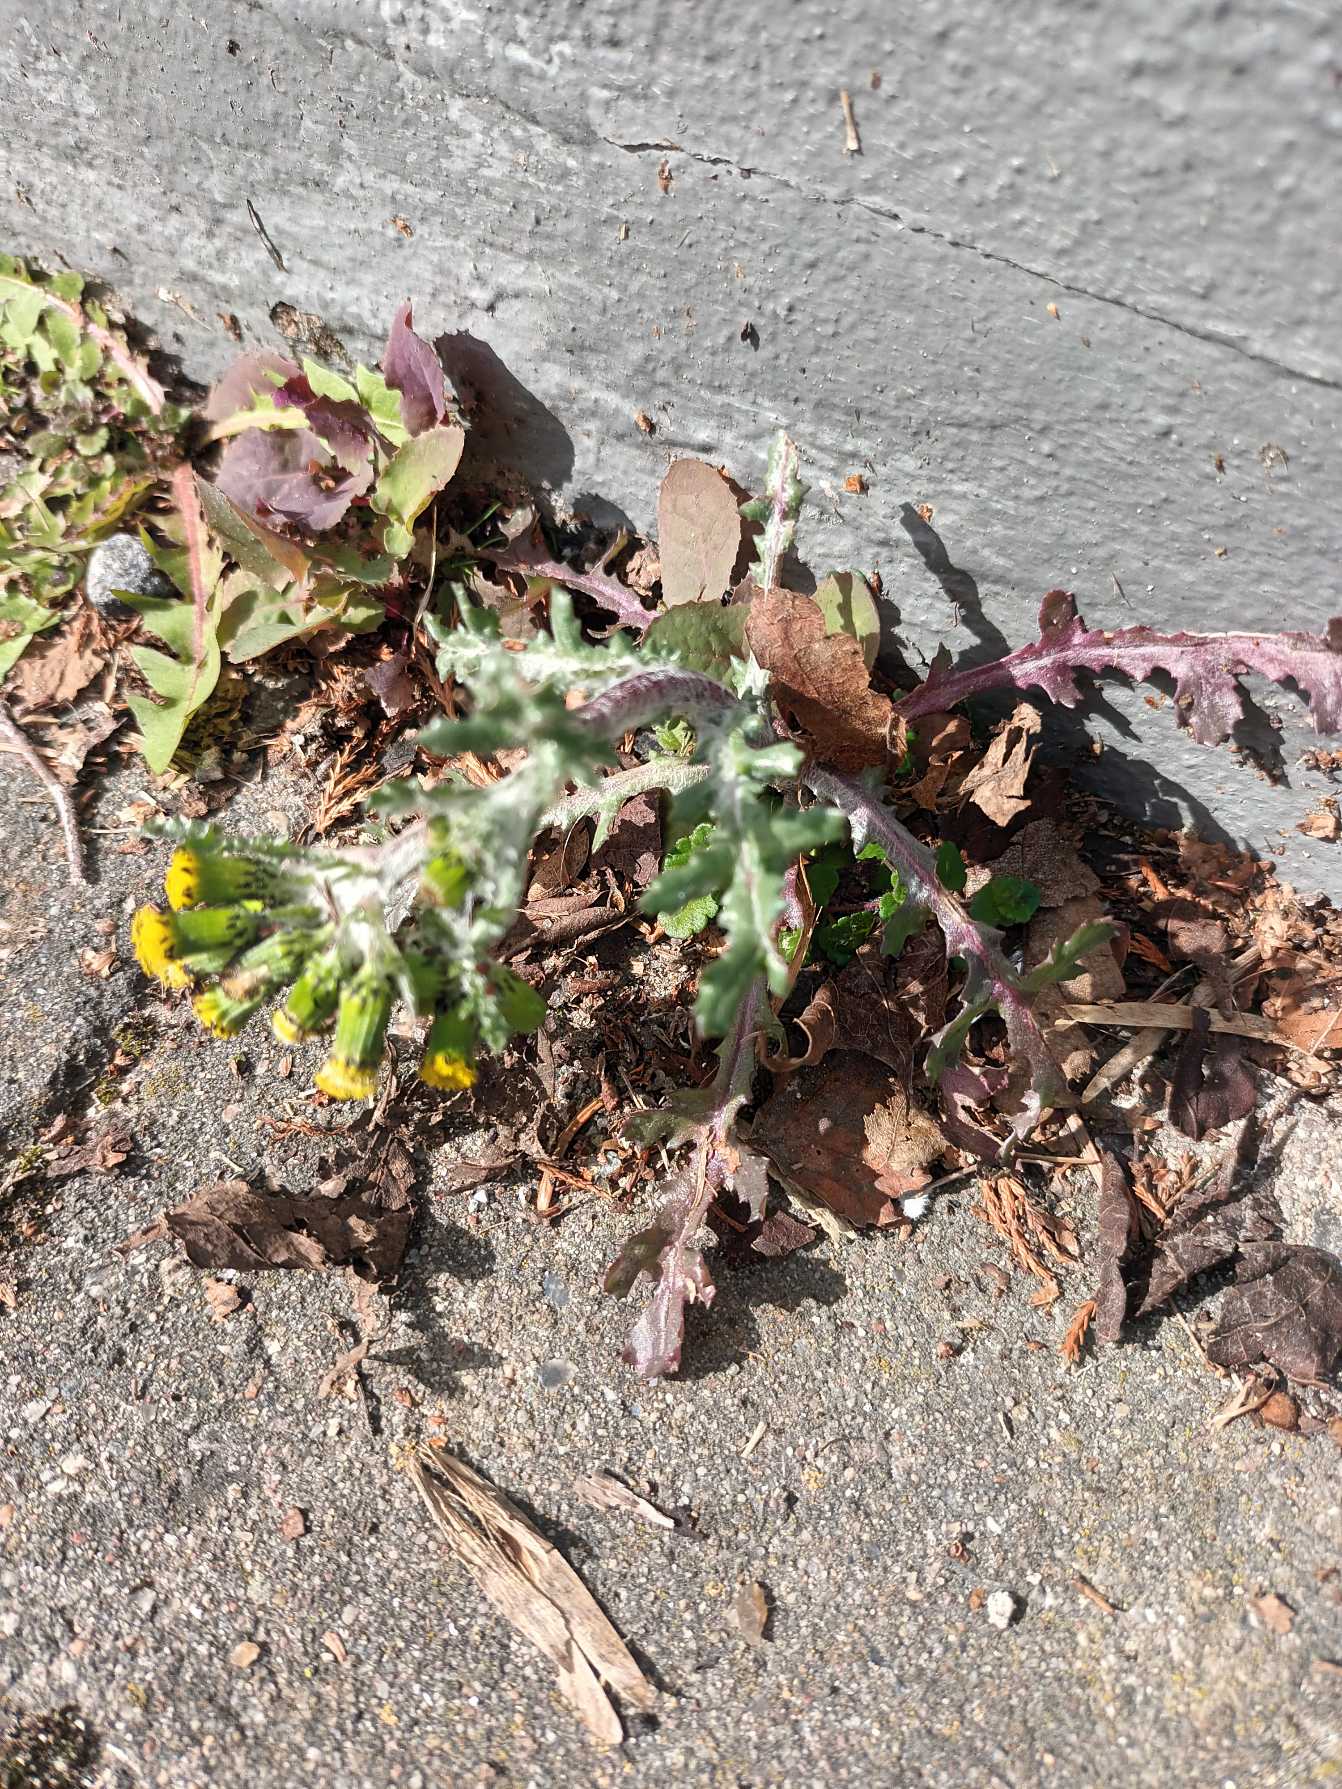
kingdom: Plantae
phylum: Tracheophyta
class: Magnoliopsida
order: Asterales
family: Asteraceae
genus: Senecio
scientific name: Senecio vulgaris
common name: Almindelig brandbæger
